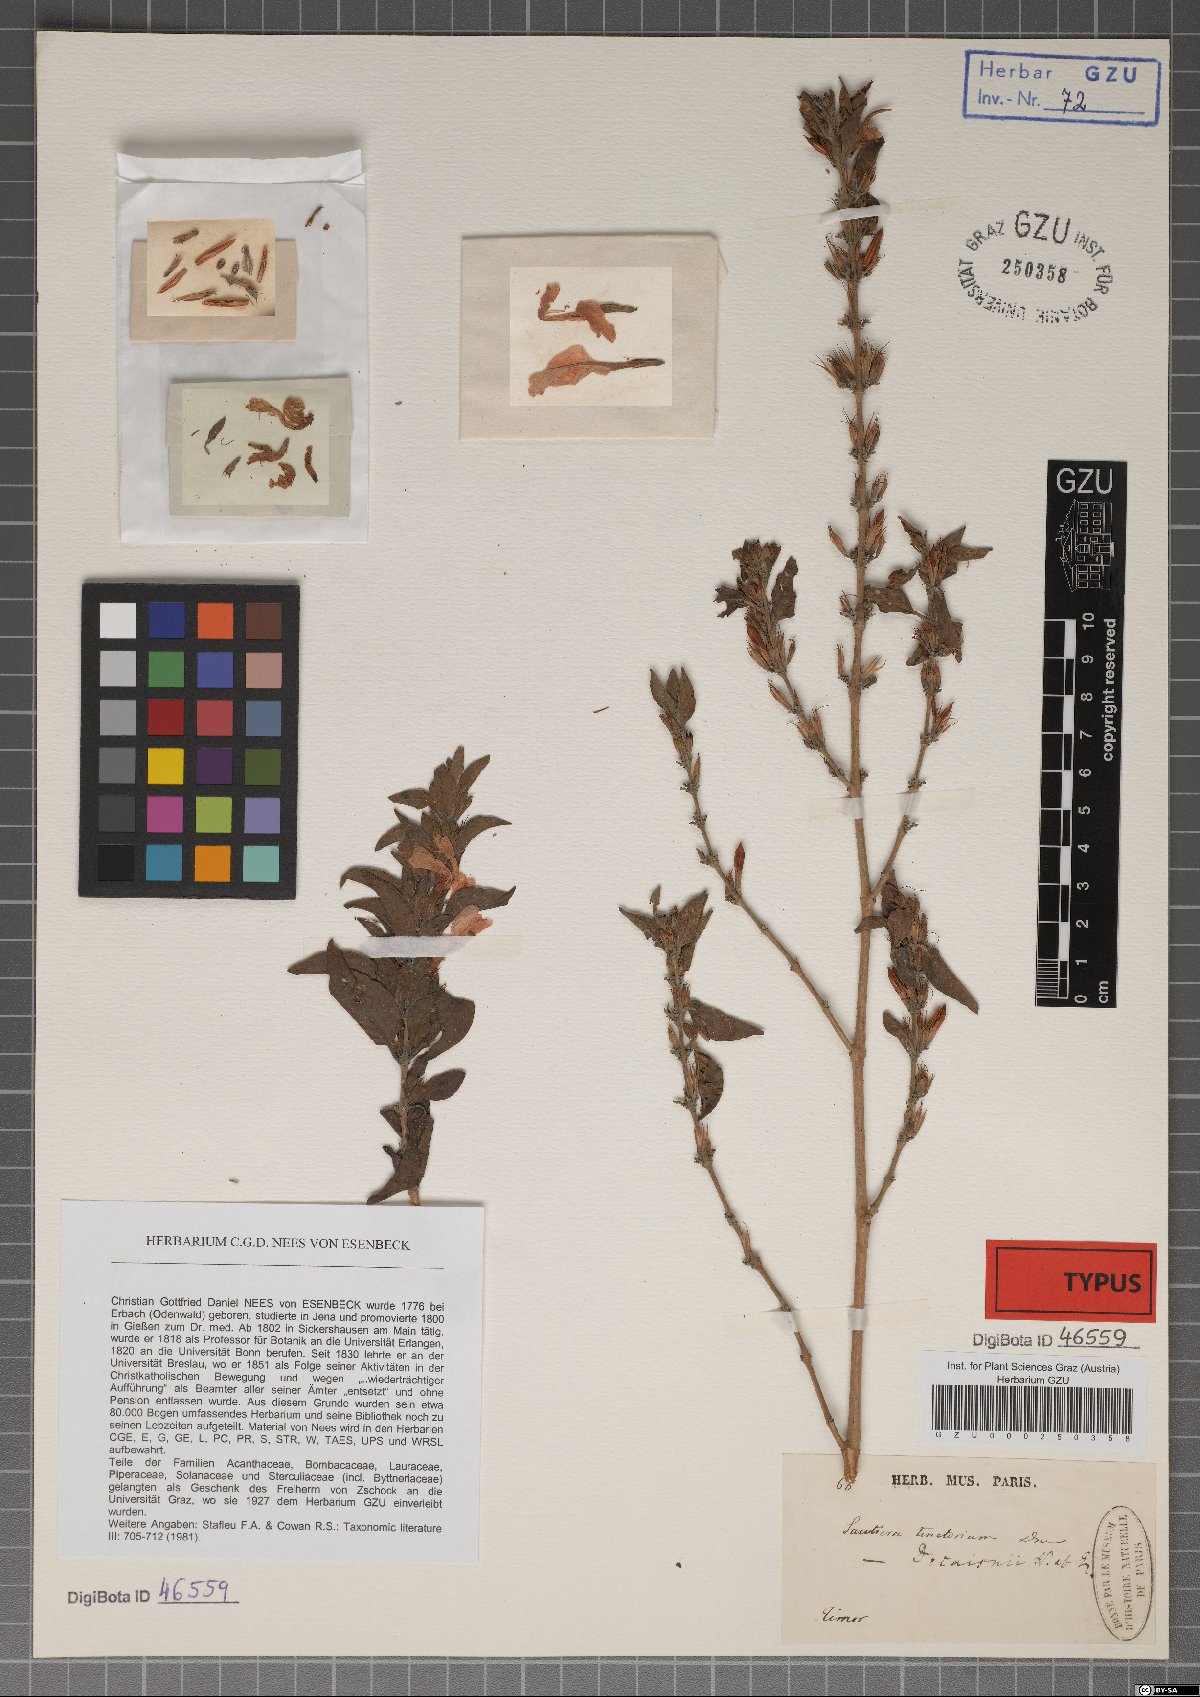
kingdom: Plantae
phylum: Tracheophyta
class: Magnoliopsida
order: Lamiales
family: Acanthaceae
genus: Dyschoriste
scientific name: Dyschoriste tinctorum
